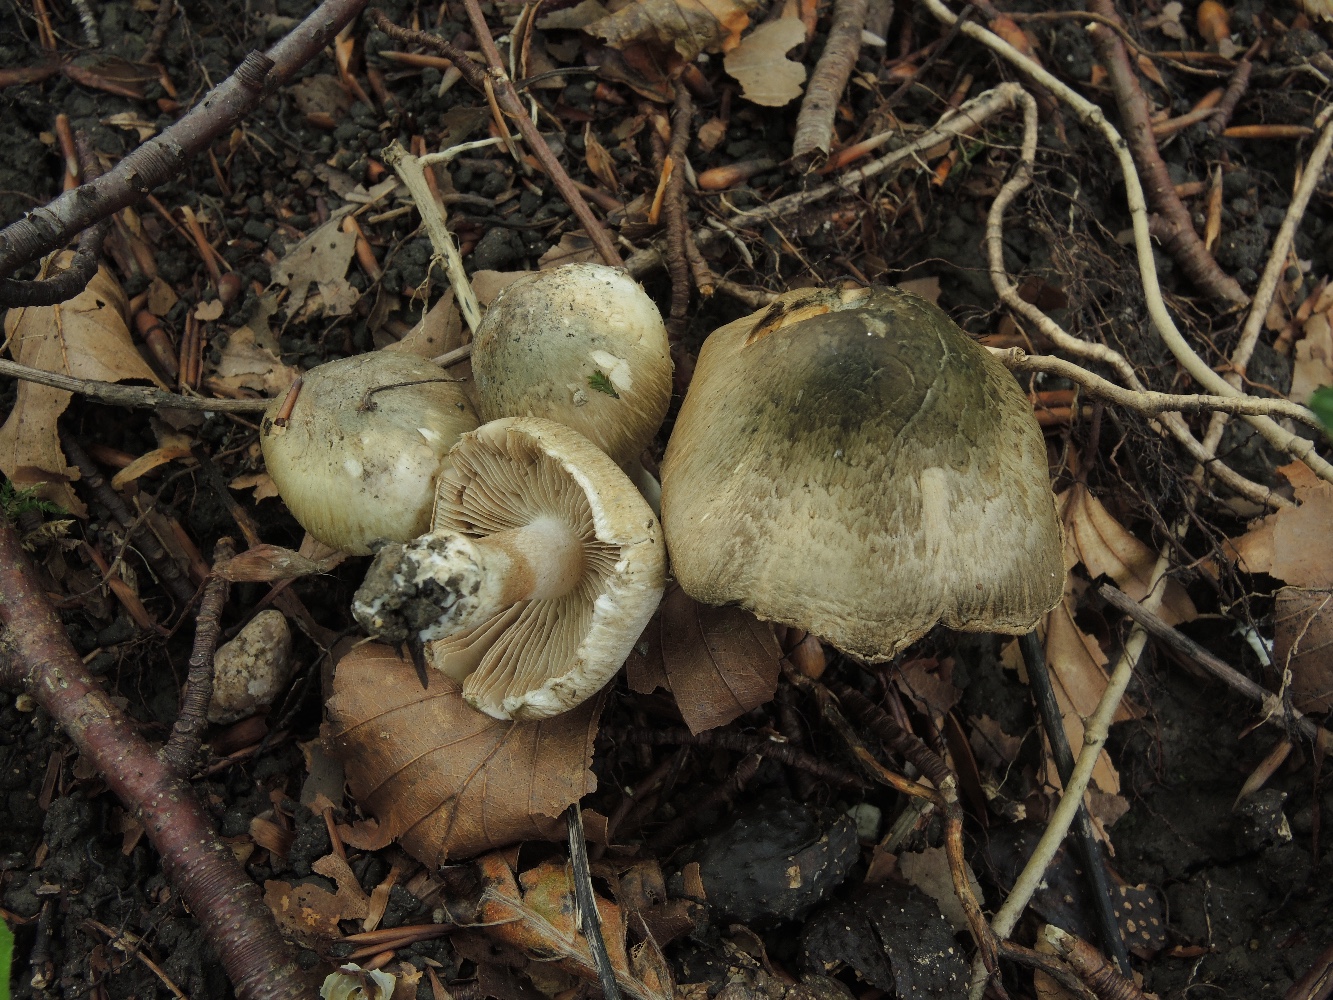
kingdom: Fungi
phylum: Basidiomycota
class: Agaricomycetes
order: Agaricales
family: Inocybaceae
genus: Inocybe
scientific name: Inocybe corydalina
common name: grønpuklet trævlhat
